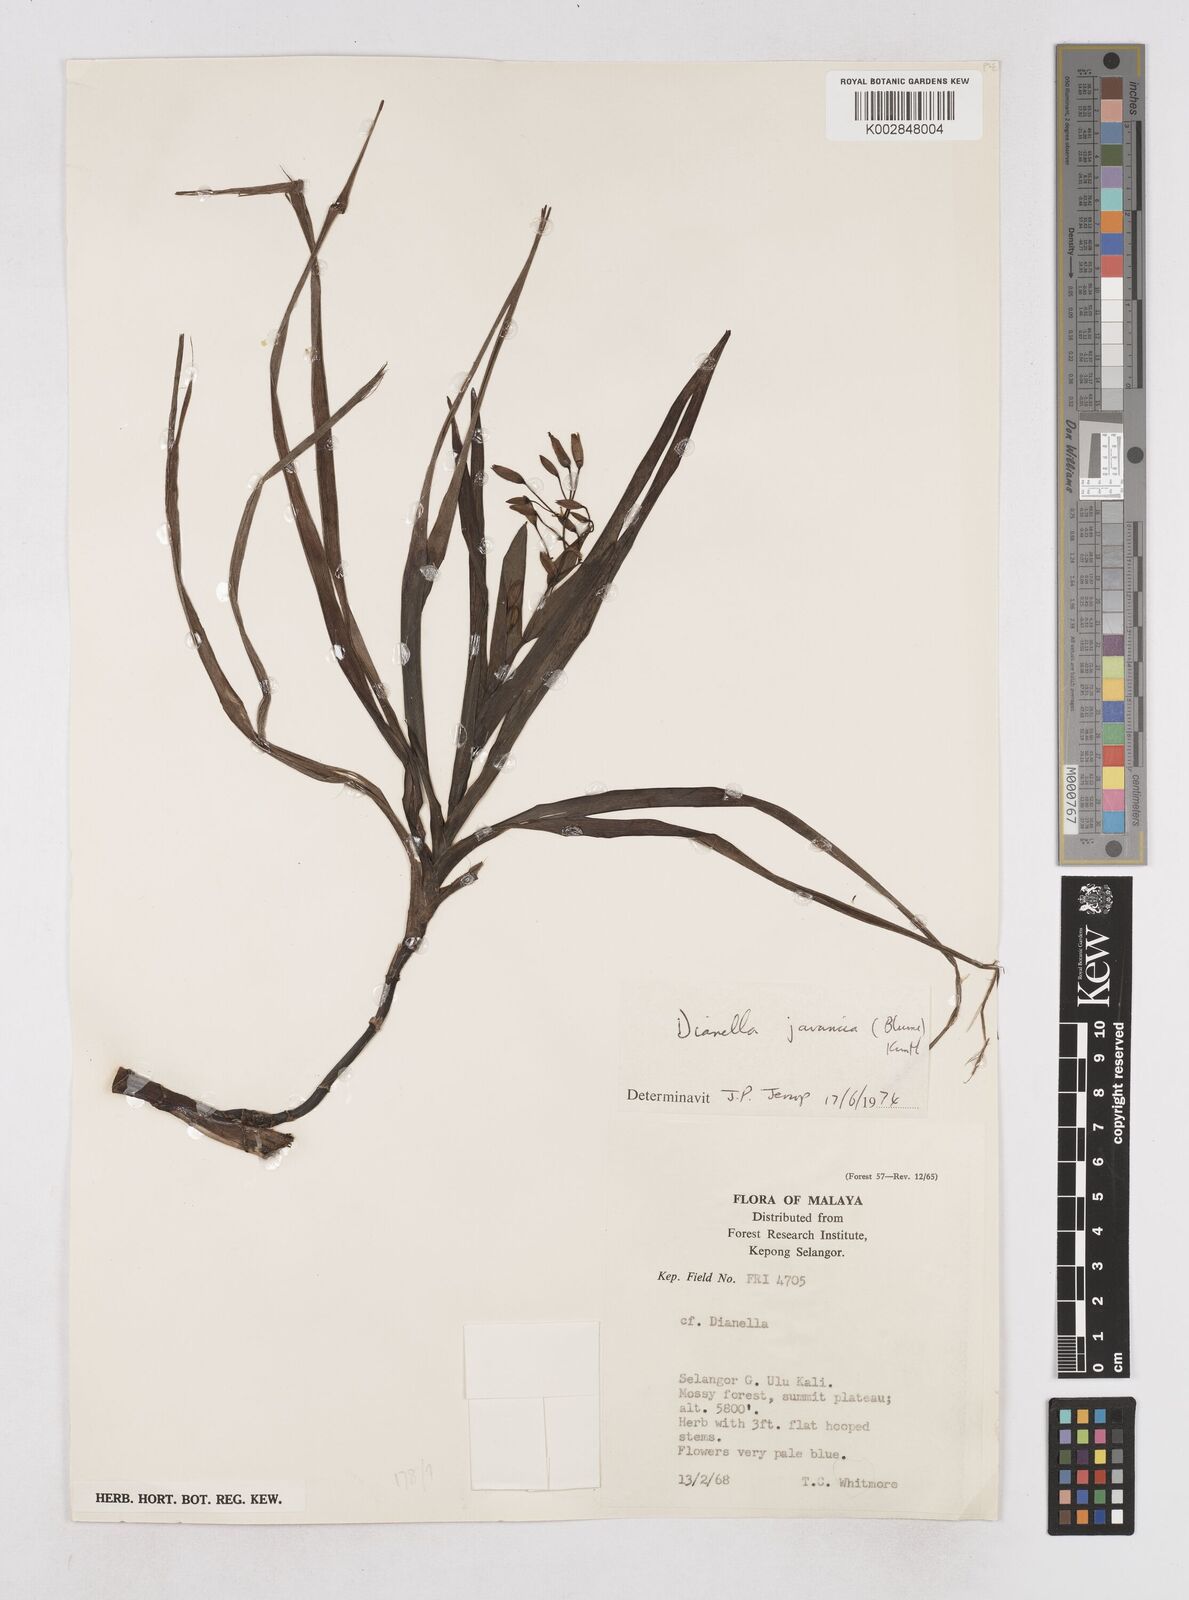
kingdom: Plantae
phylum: Tracheophyta
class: Liliopsida
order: Asparagales
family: Asphodelaceae
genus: Dianella
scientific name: Dianella ensifolia
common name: New zealand lilyplant
